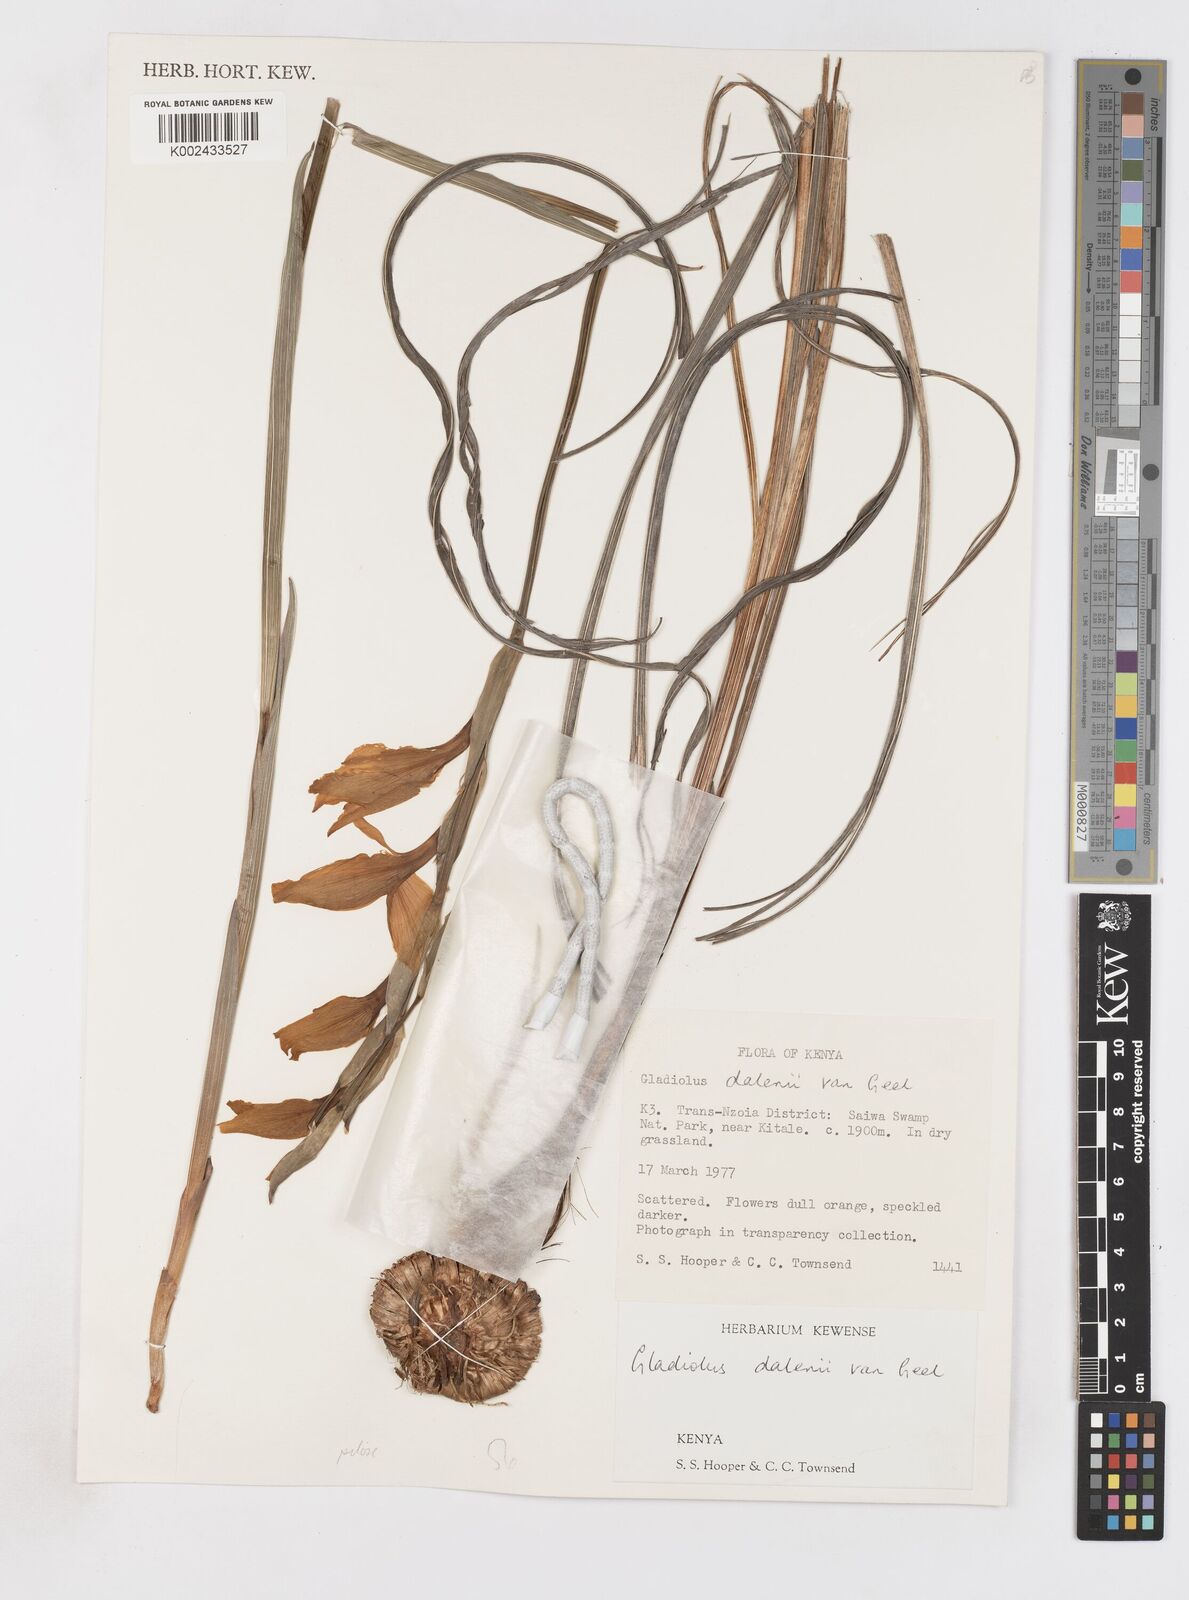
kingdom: Plantae
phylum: Tracheophyta
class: Liliopsida
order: Asparagales
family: Iridaceae
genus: Gladiolus
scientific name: Gladiolus dalenii
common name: Cornflag
